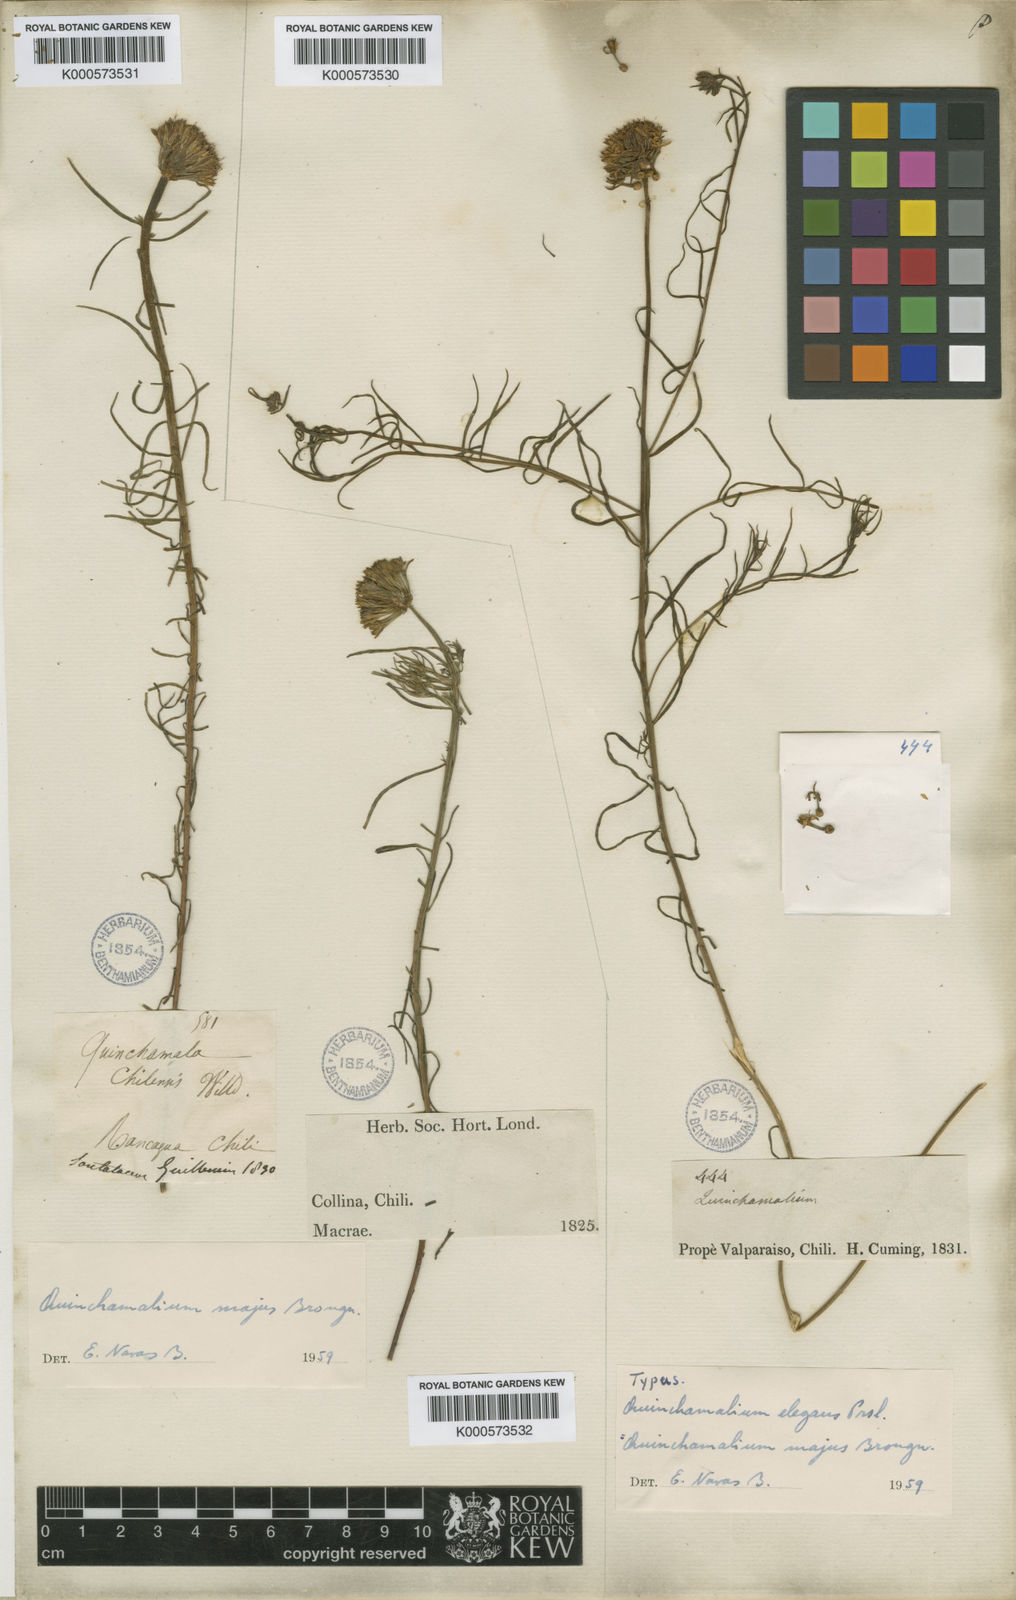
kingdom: Plantae
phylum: Tracheophyta
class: Magnoliopsida
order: Santalales
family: Schoepfiaceae
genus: Quinchamalium
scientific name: Quinchamalium chilense
